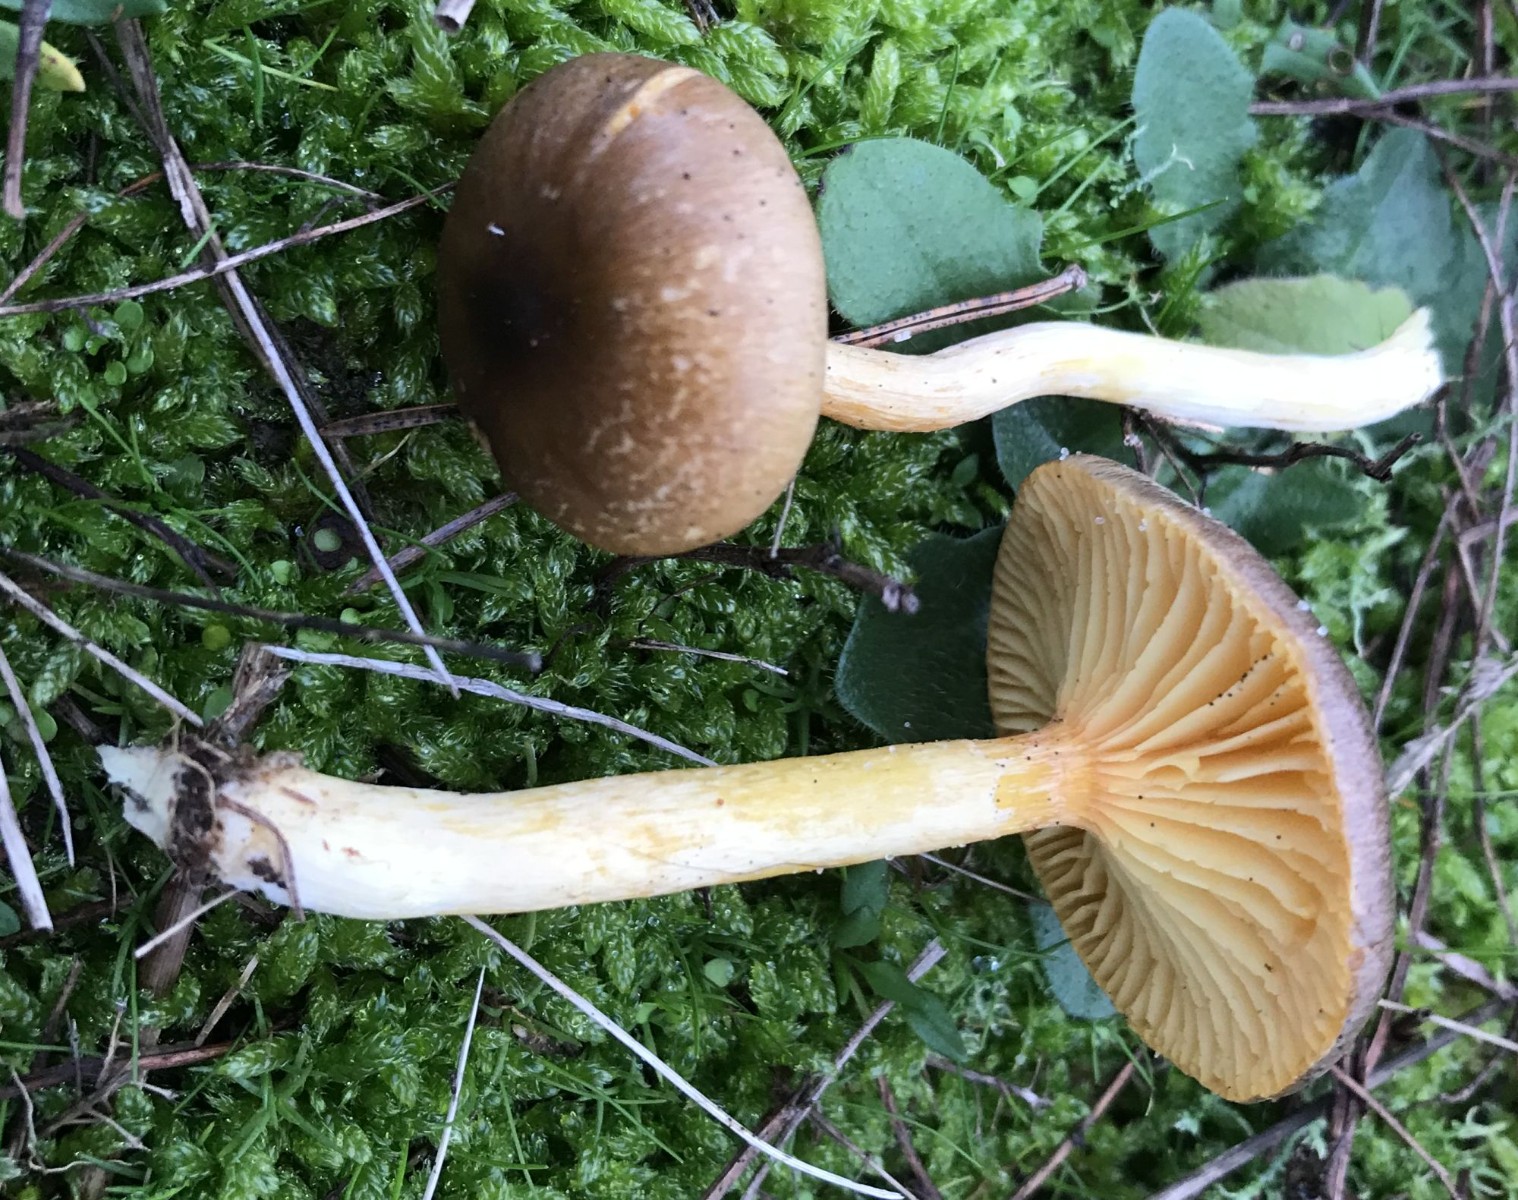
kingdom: Fungi
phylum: Basidiomycota
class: Agaricomycetes
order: Agaricales
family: Hygrophoraceae
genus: Hygrophorus
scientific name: Hygrophorus hypothejus
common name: frost-sneglehat
